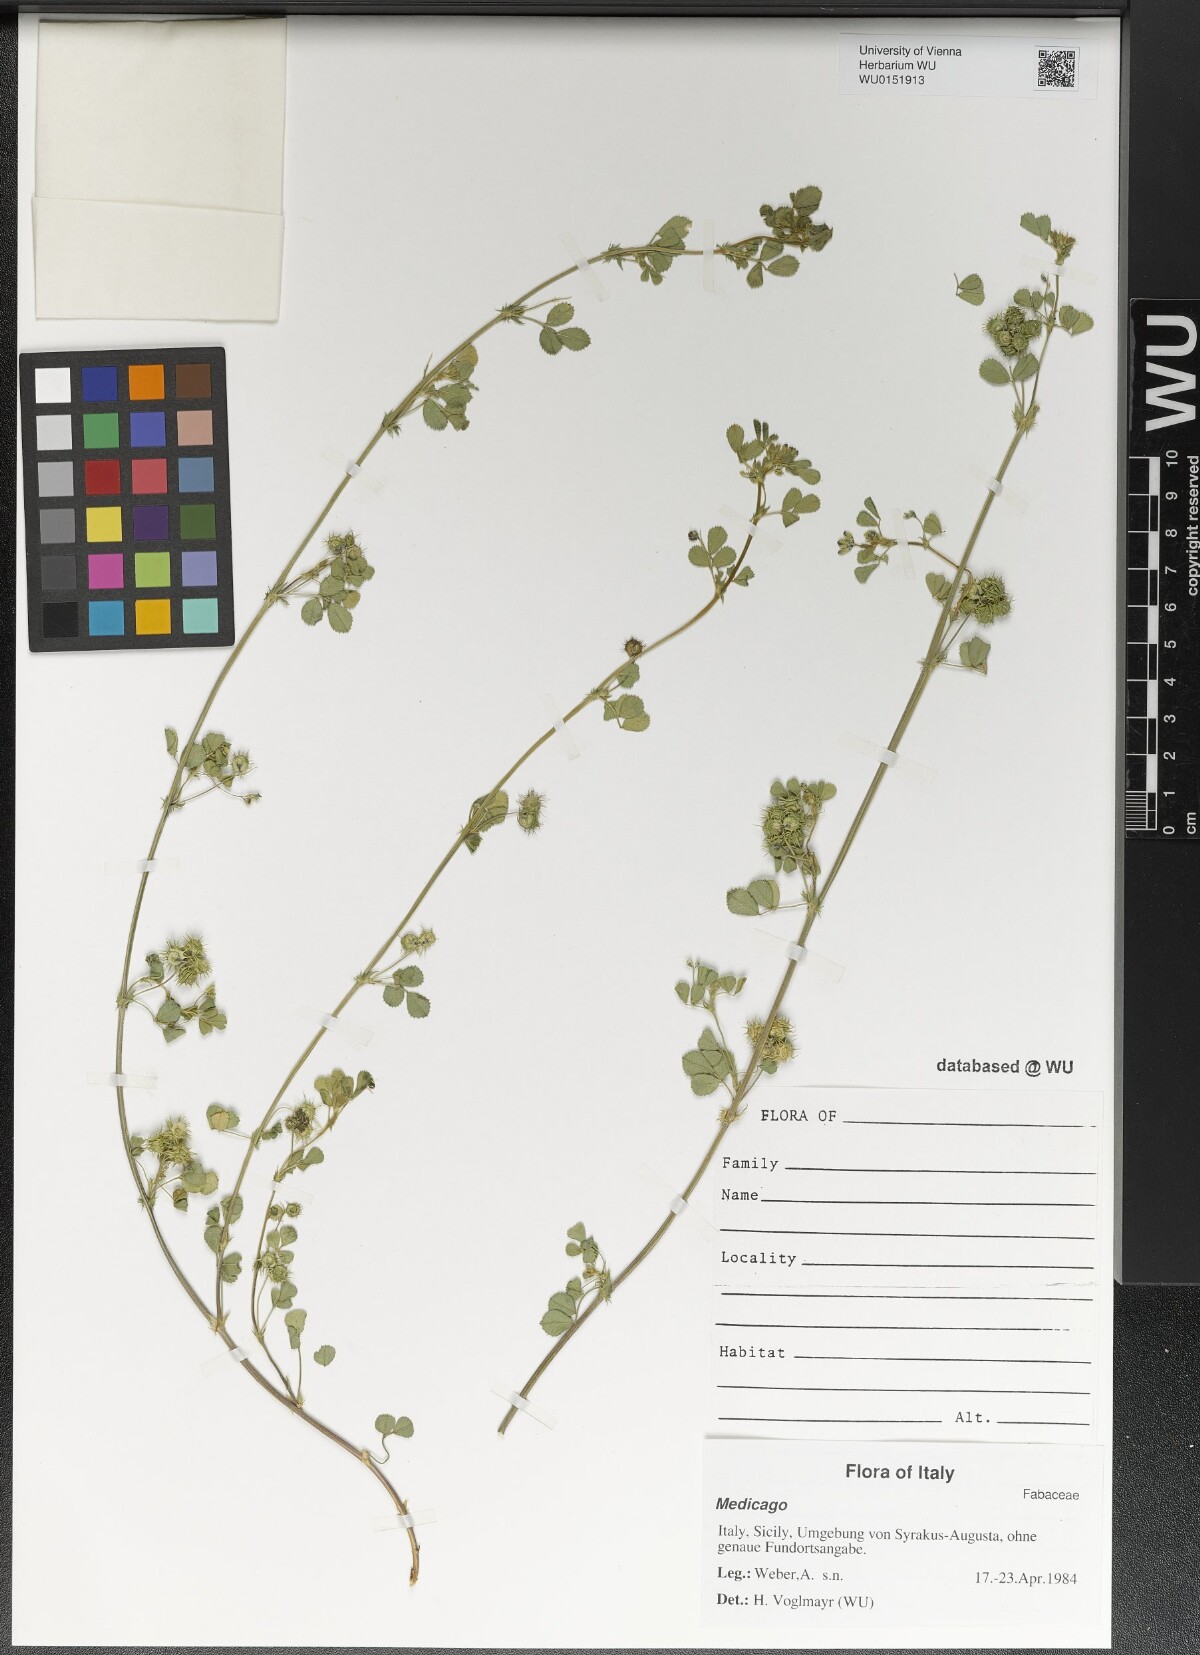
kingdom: Plantae
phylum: Tracheophyta
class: Magnoliopsida
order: Fabales
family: Fabaceae
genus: Medicago
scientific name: Medicago
